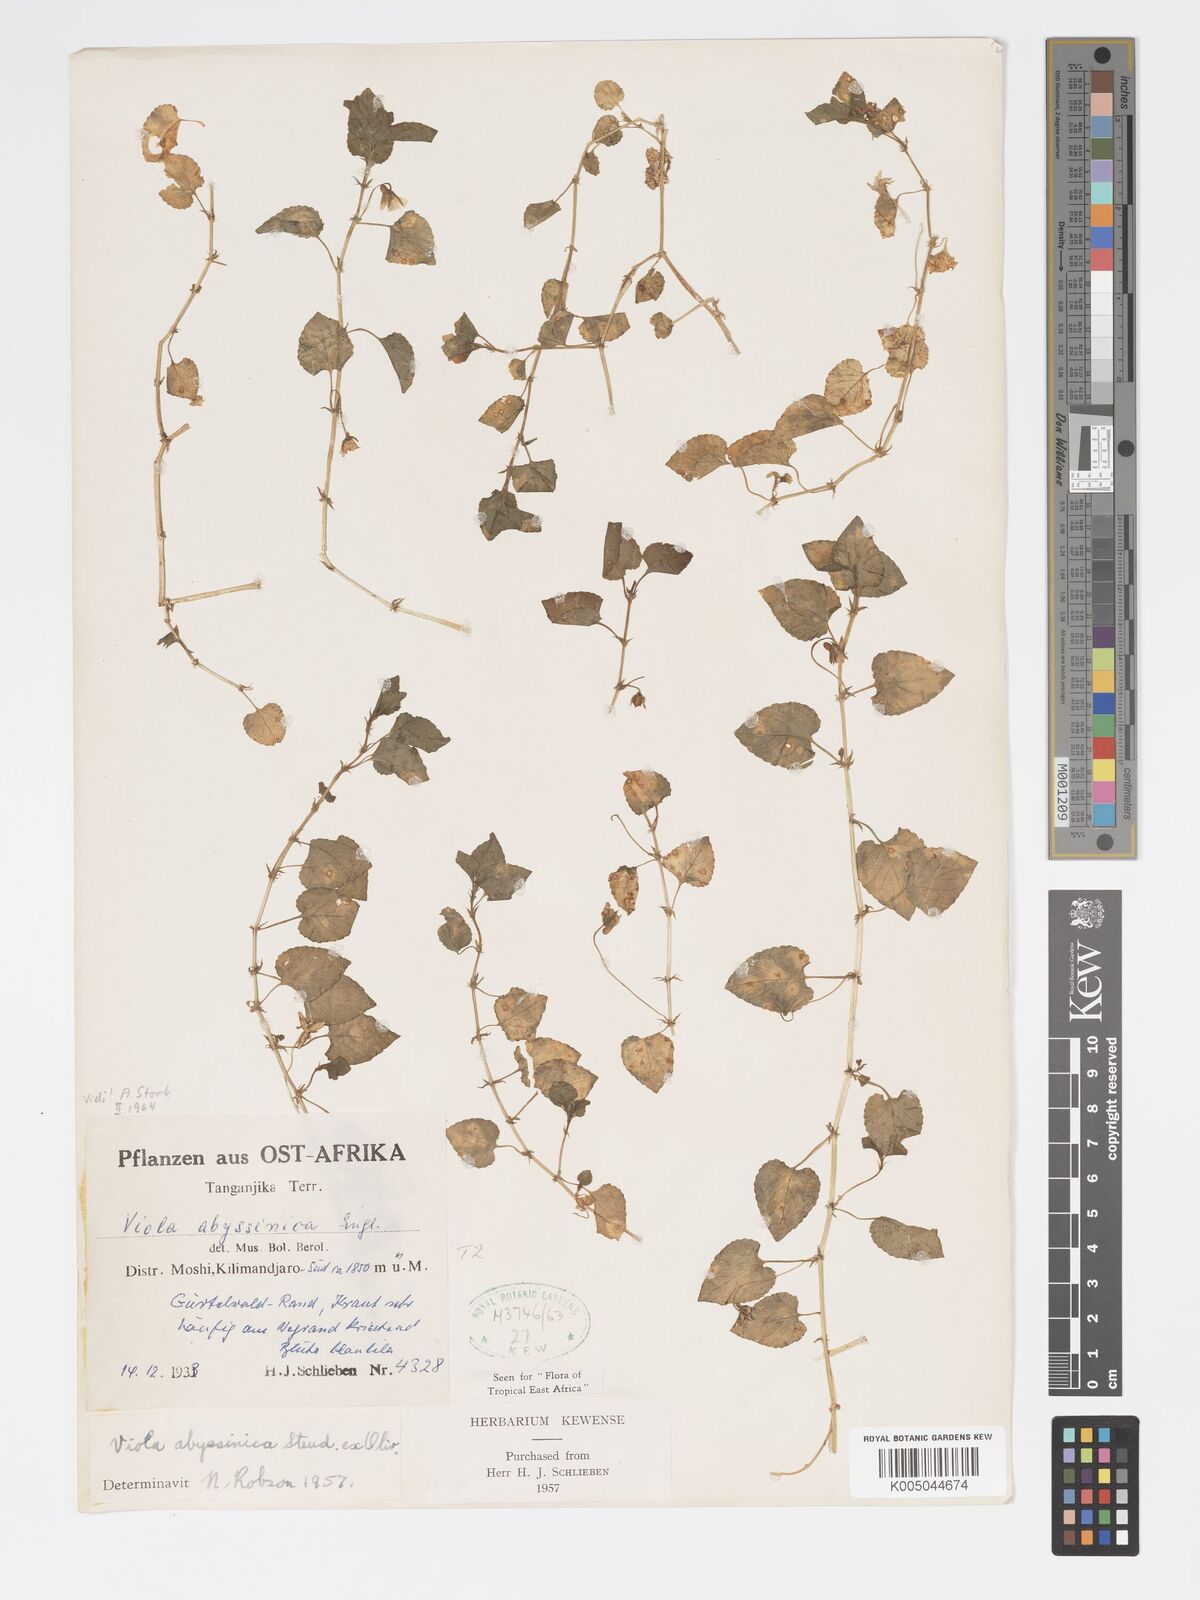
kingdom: Plantae
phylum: Tracheophyta
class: Magnoliopsida
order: Malpighiales
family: Violaceae
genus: Viola
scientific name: Viola abyssinica
